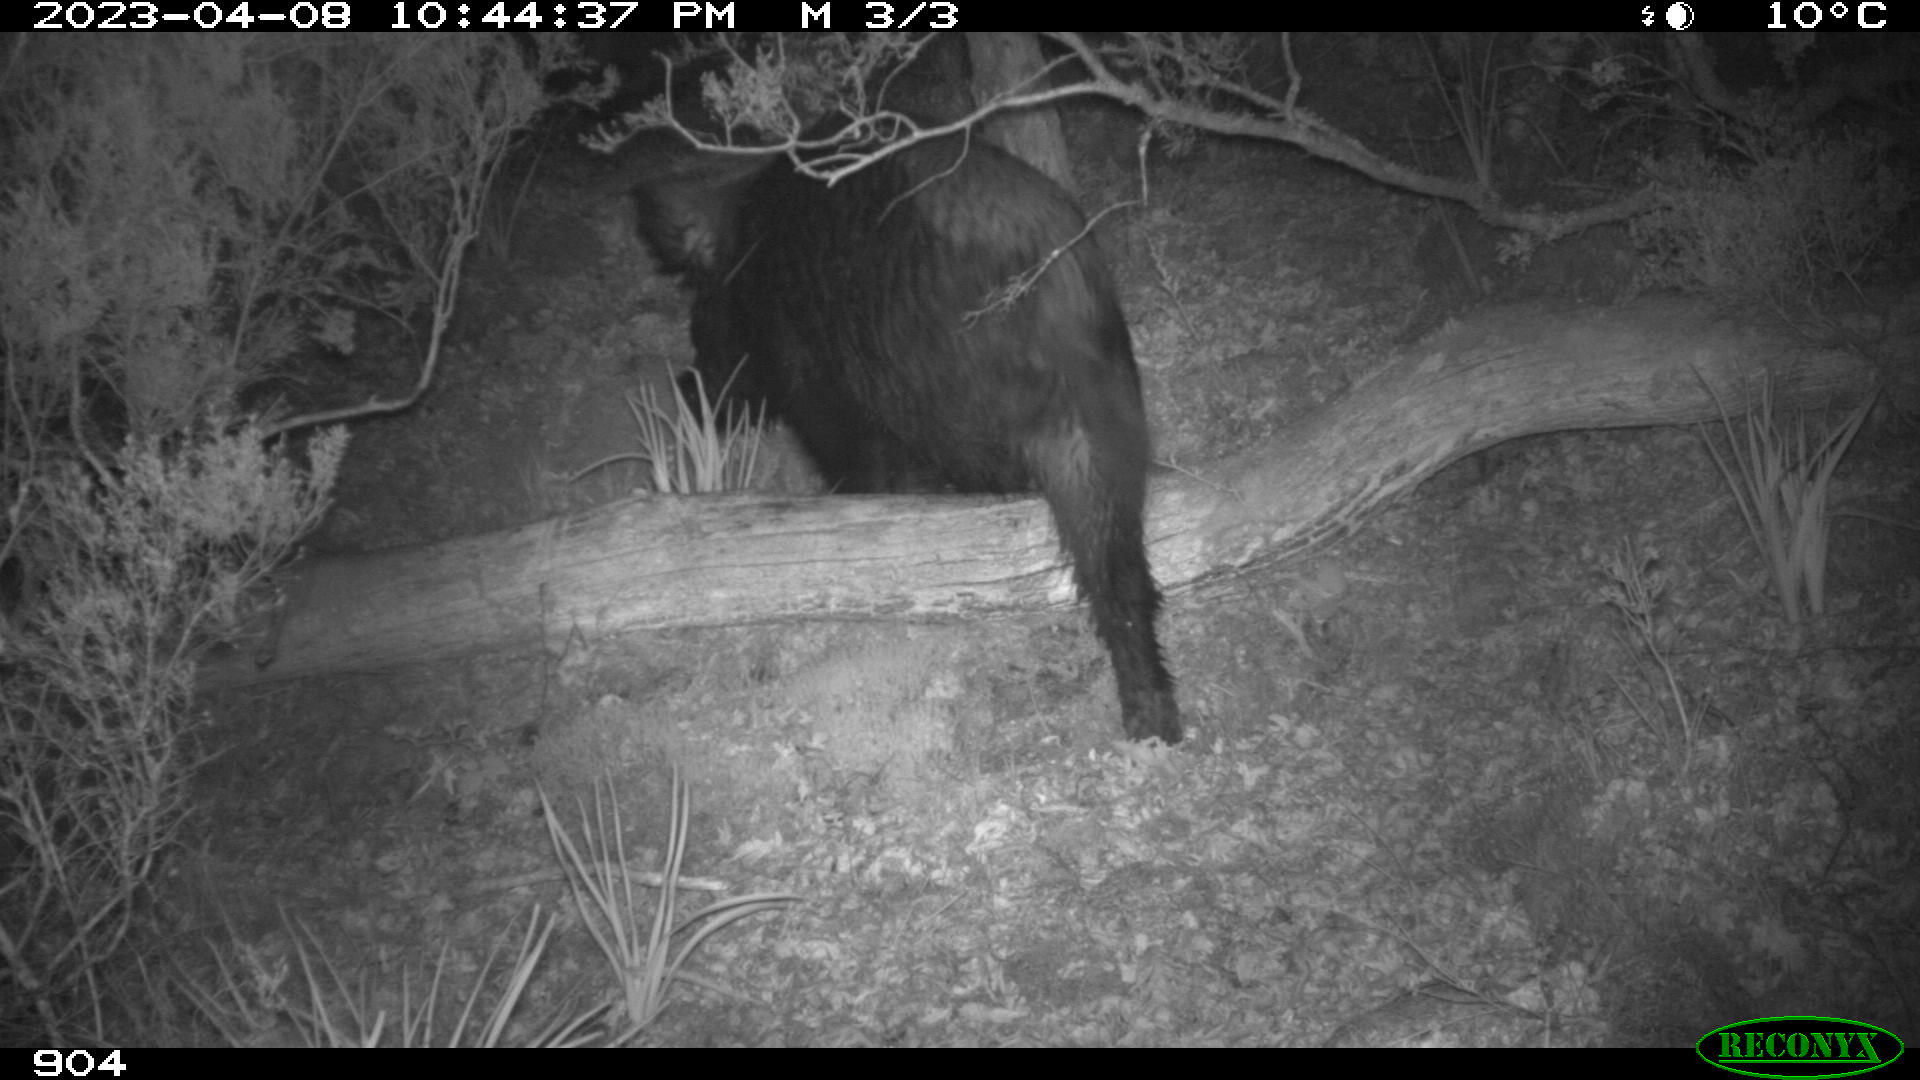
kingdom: Animalia
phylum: Chordata
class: Mammalia
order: Artiodactyla
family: Suidae
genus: Sus
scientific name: Sus scrofa
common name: Wild boar
